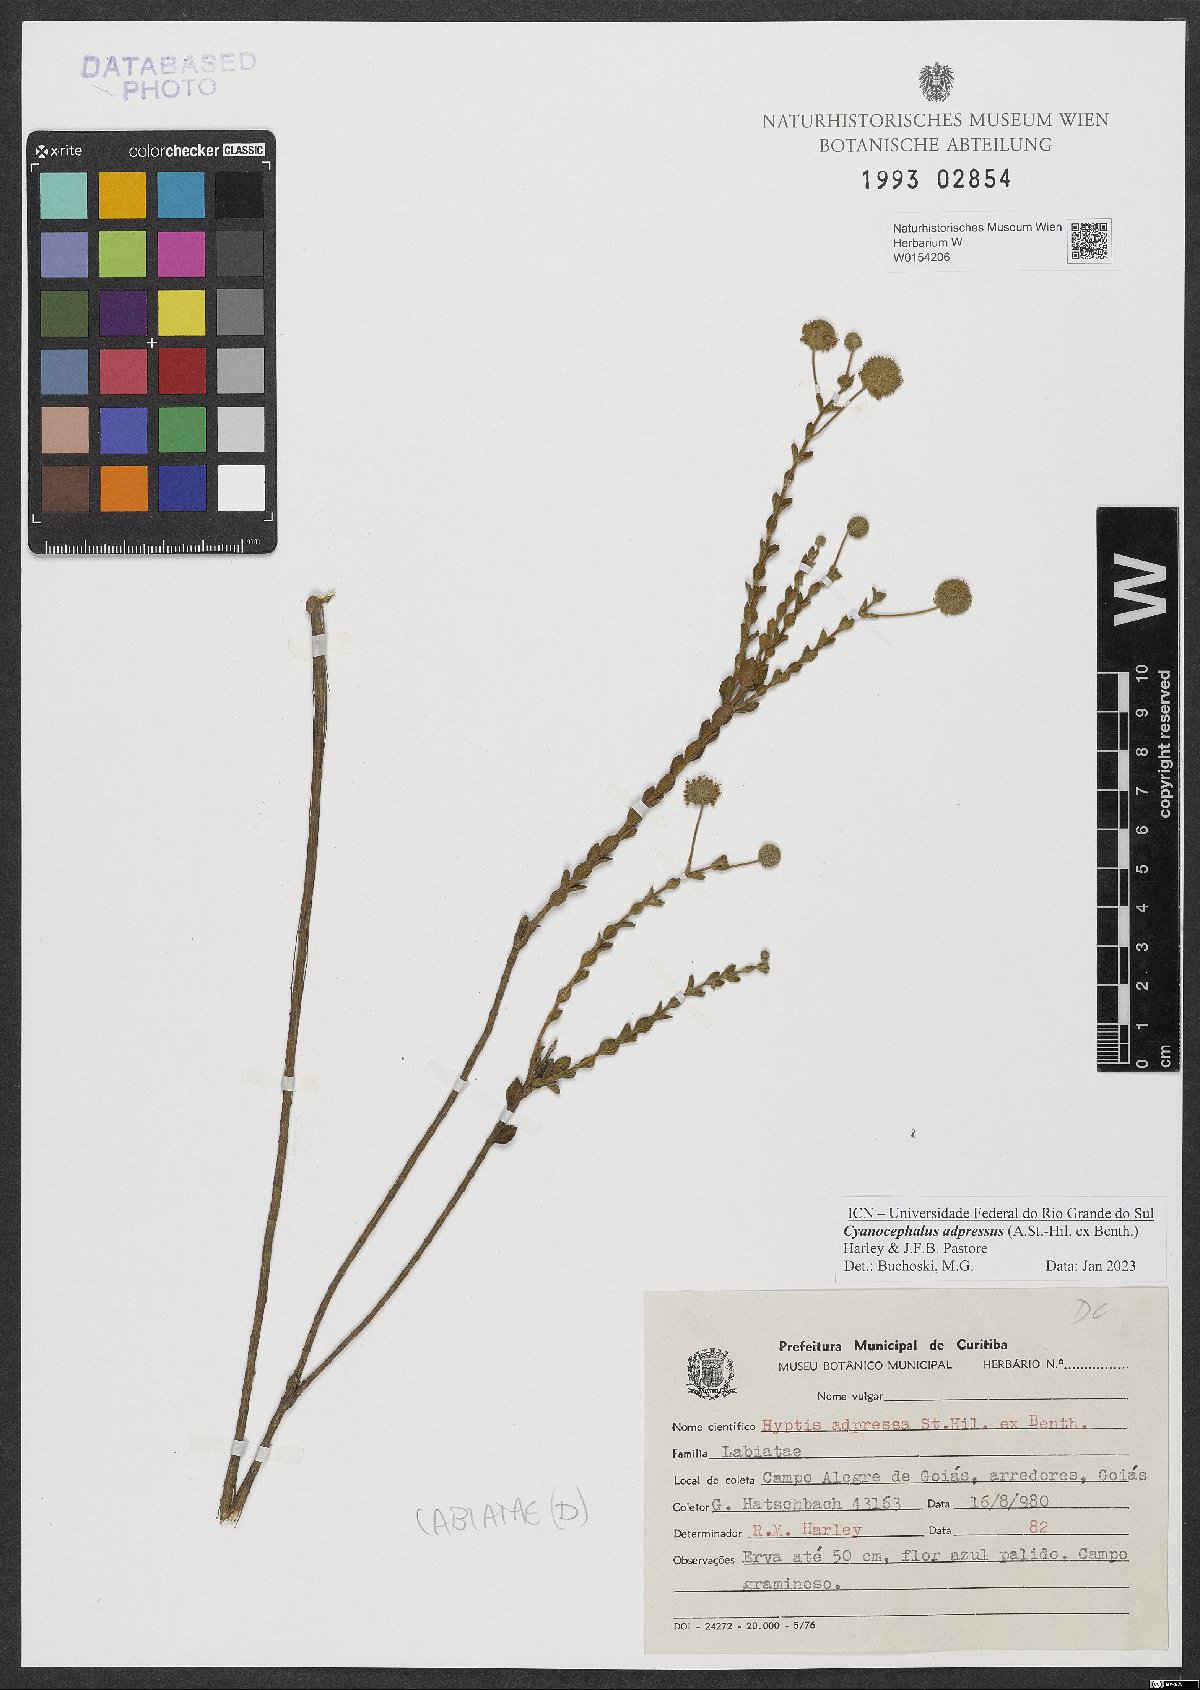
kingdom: Plantae
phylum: Tracheophyta
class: Magnoliopsida
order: Lamiales
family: Lamiaceae
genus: Cyanocephalus
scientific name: Cyanocephalus adpressus
